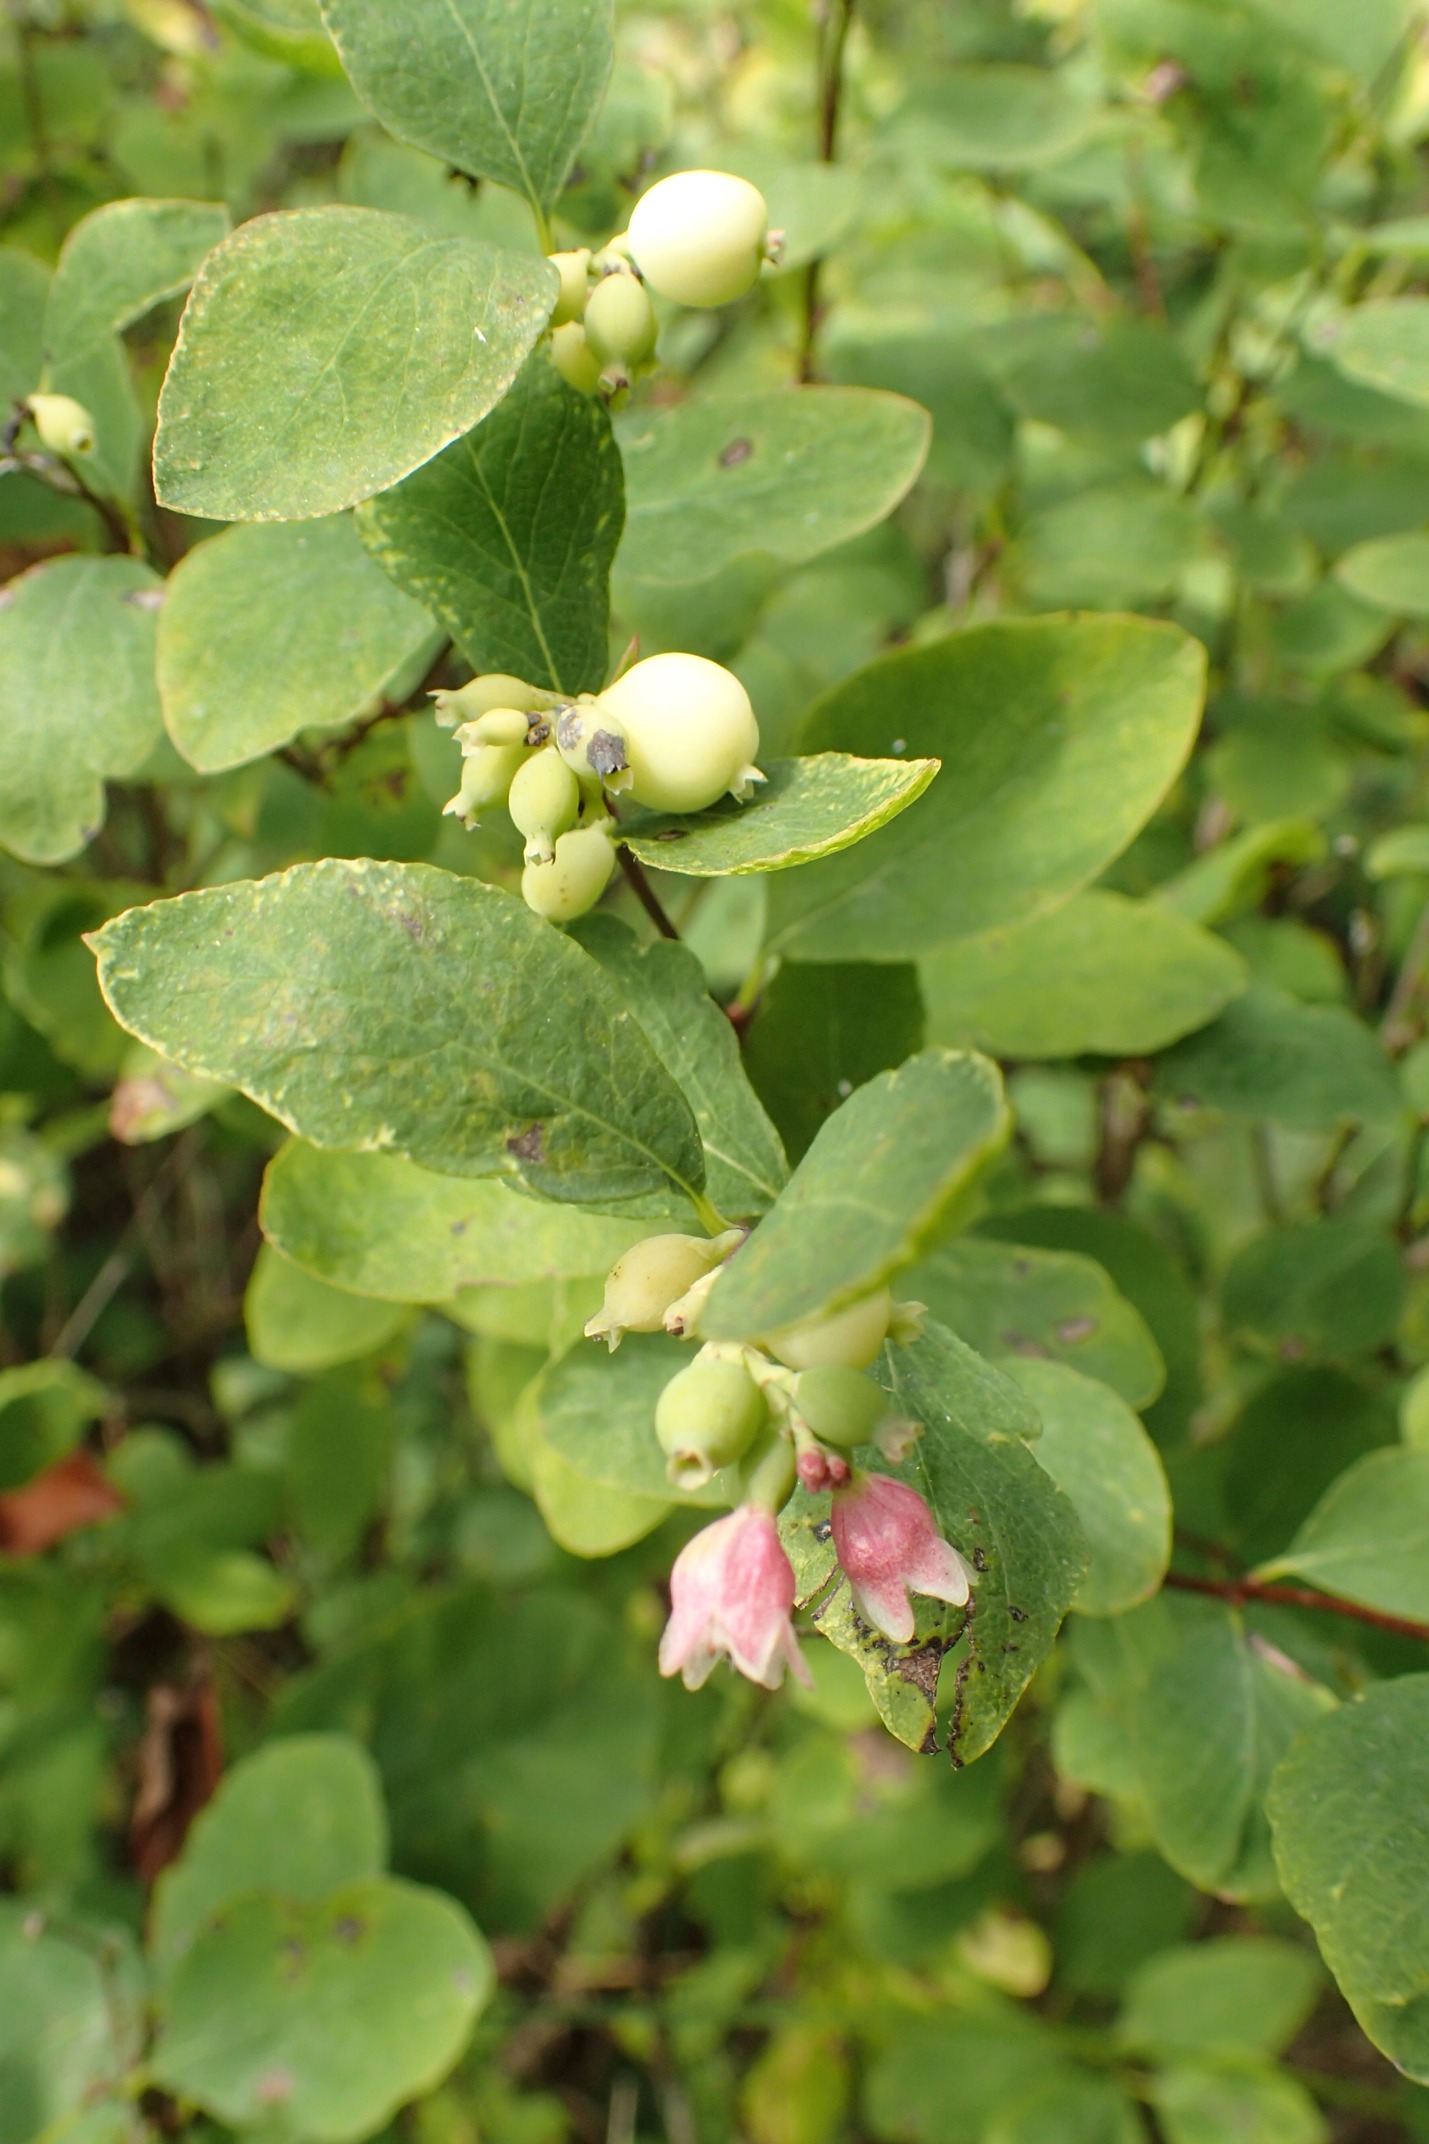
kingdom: Plantae
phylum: Tracheophyta
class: Magnoliopsida
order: Dipsacales
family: Caprifoliaceae
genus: Symphoricarpos
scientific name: Symphoricarpos albus
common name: Almindelig snebær
